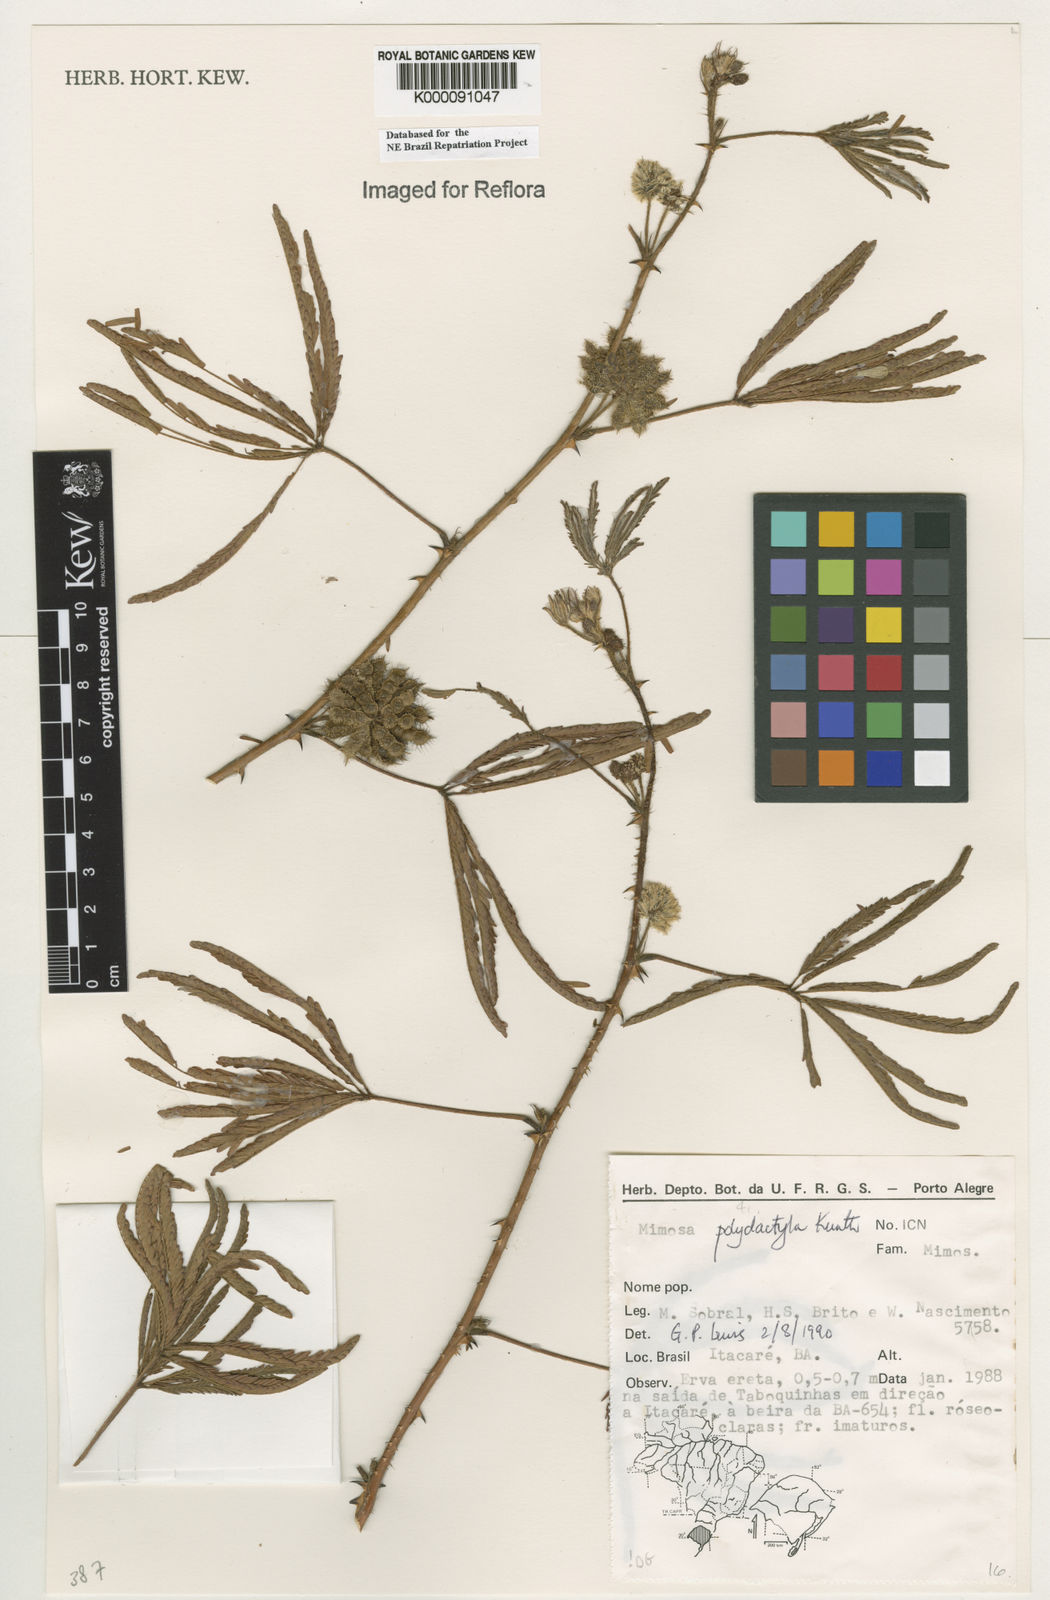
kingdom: Plantae
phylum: Tracheophyta
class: Magnoliopsida
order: Fabales
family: Fabaceae
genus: Mimosa
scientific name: Mimosa
